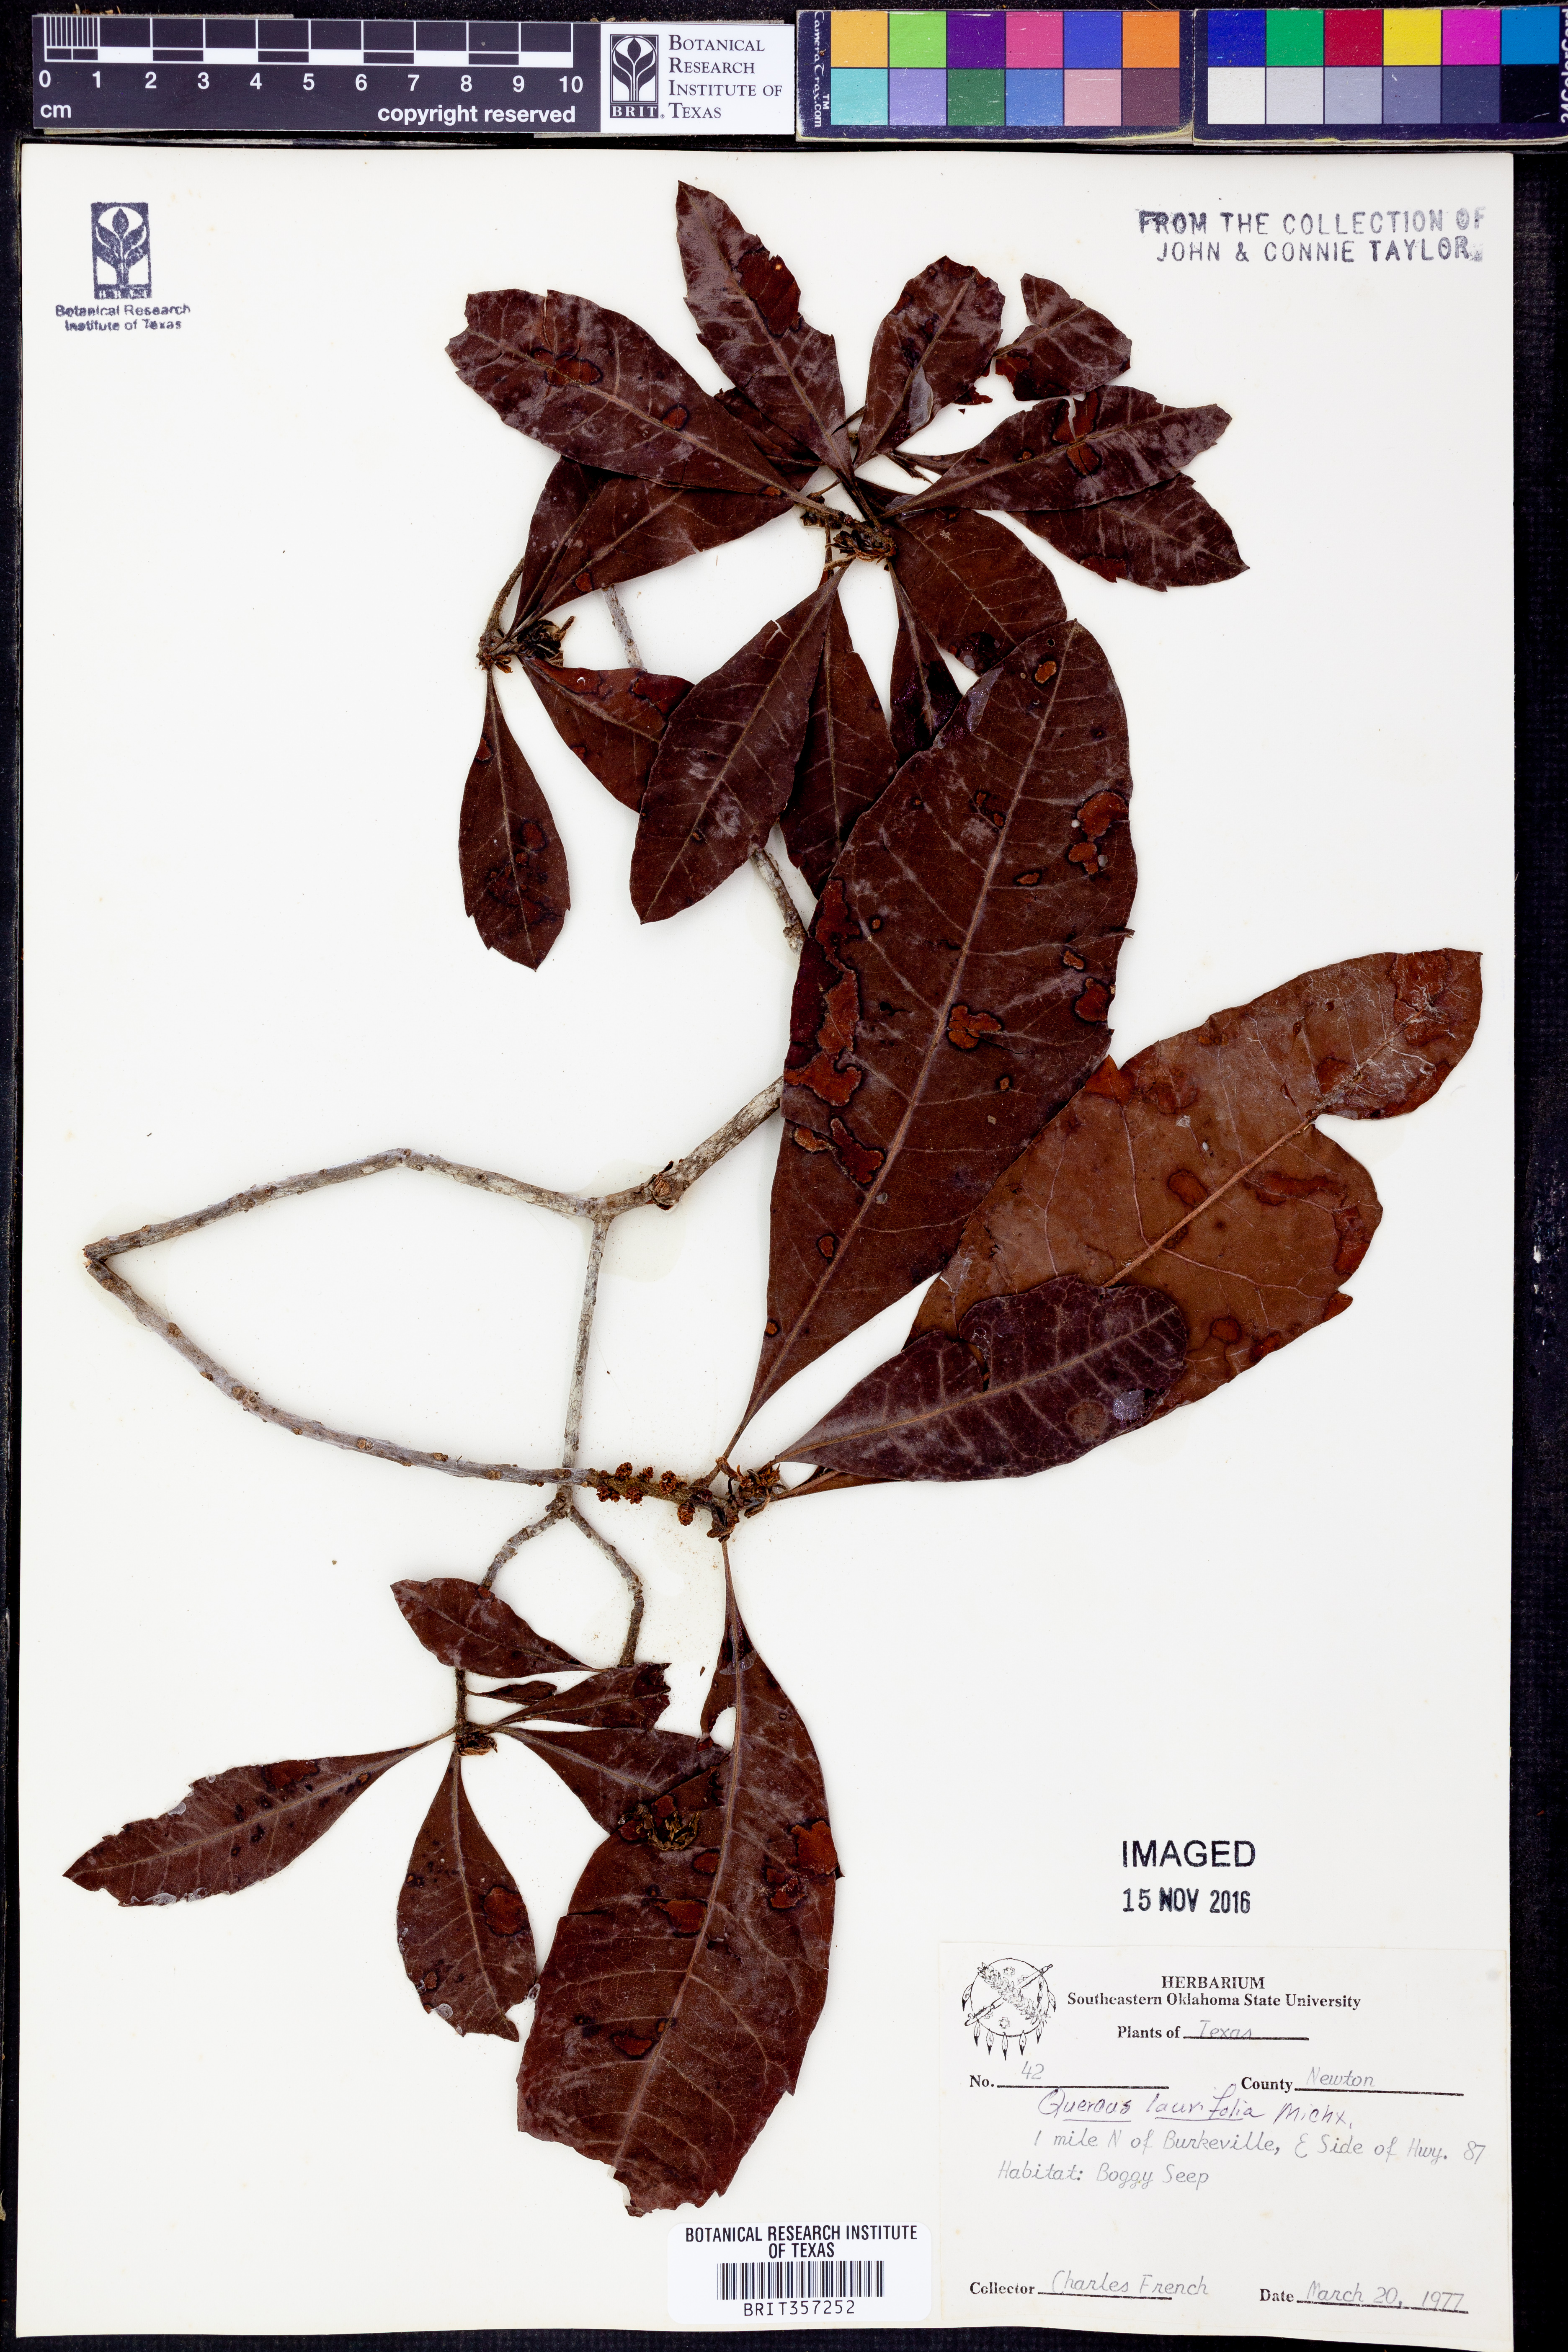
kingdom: Plantae
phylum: Tracheophyta
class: Magnoliopsida
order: Fagales
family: Fagaceae
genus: Quercus
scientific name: Quercus laurifolia
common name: Swamp laurel oak
